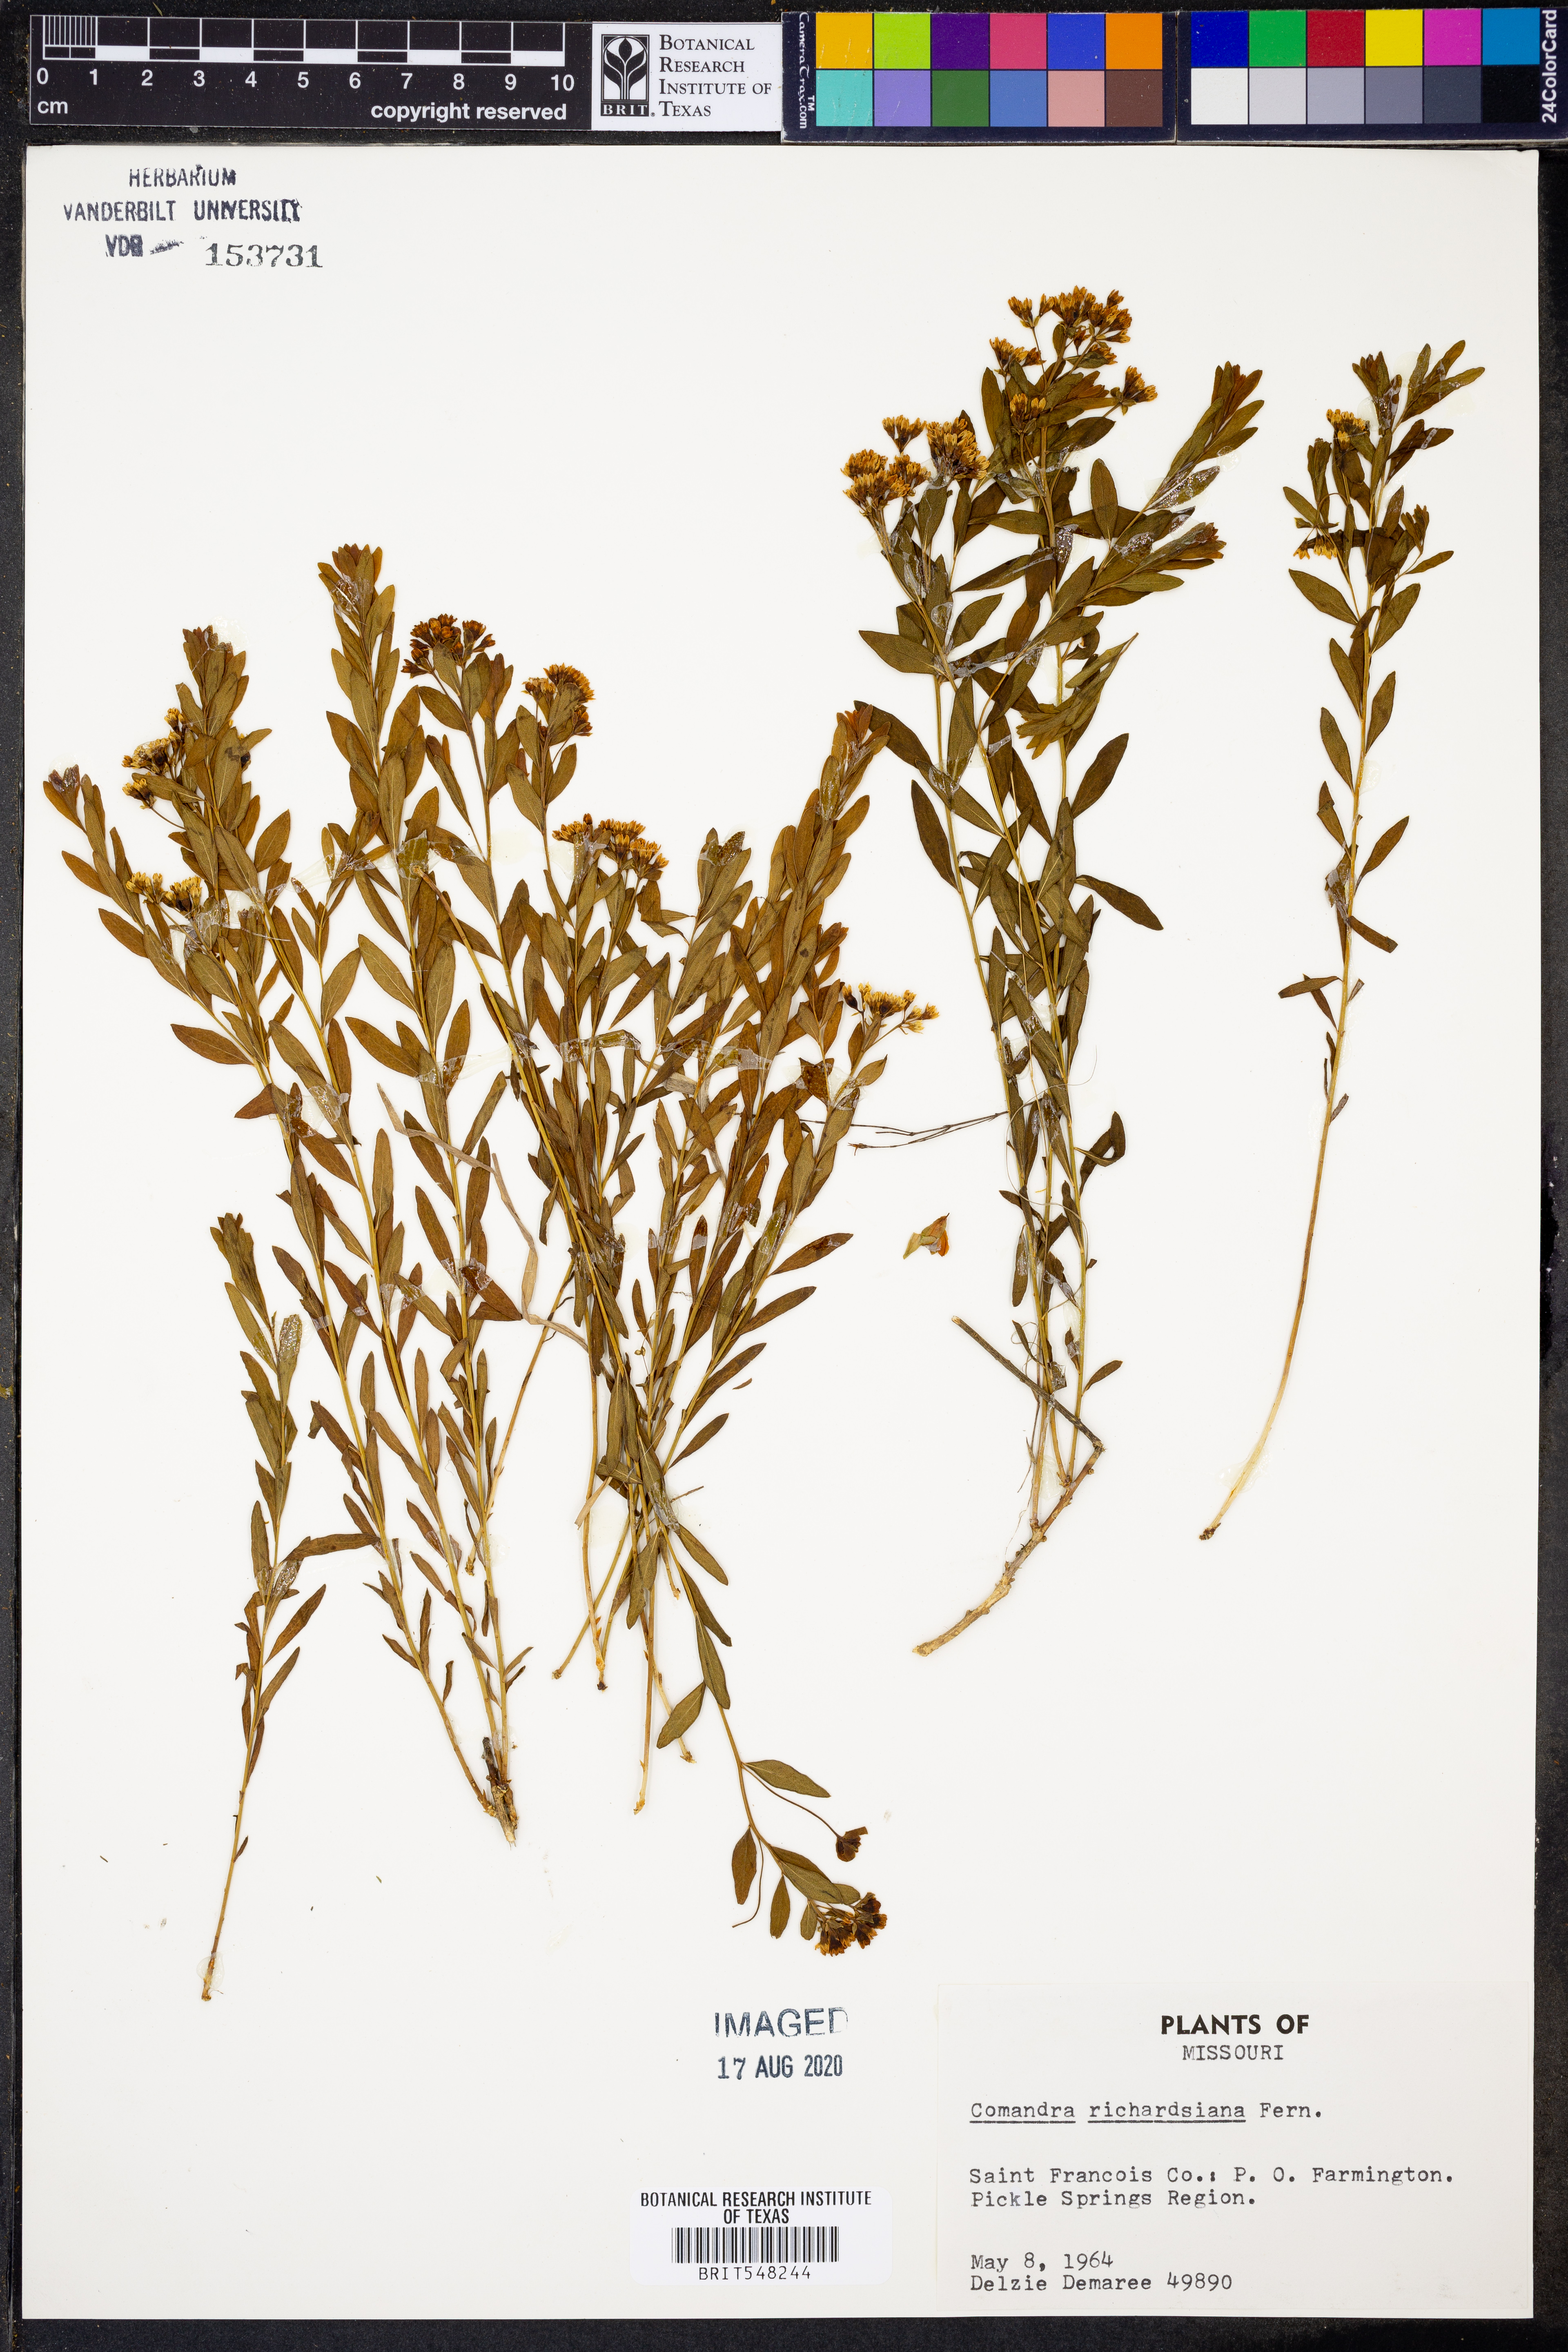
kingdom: Plantae
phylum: Tracheophyta
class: Magnoliopsida
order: Santalales
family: Comandraceae
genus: Comandra
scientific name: Comandra umbellata
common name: Bastard toadflax
